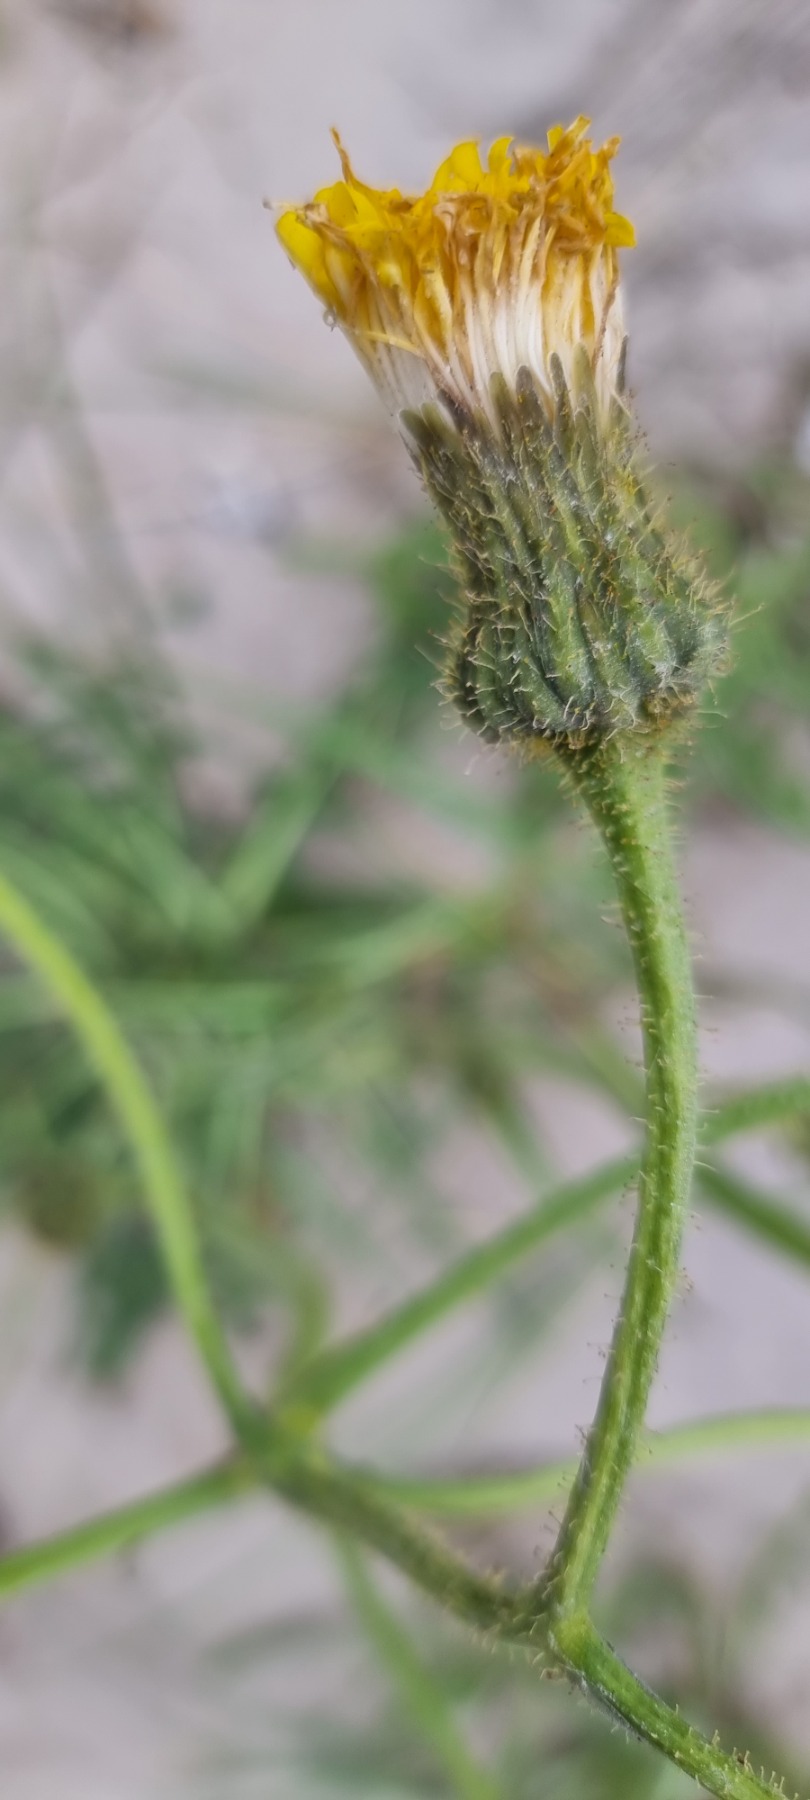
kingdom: Plantae
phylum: Tracheophyta
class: Magnoliopsida
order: Asterales
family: Asteraceae
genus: Sonchus
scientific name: Sonchus arvensis
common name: Ager-svinemælk
